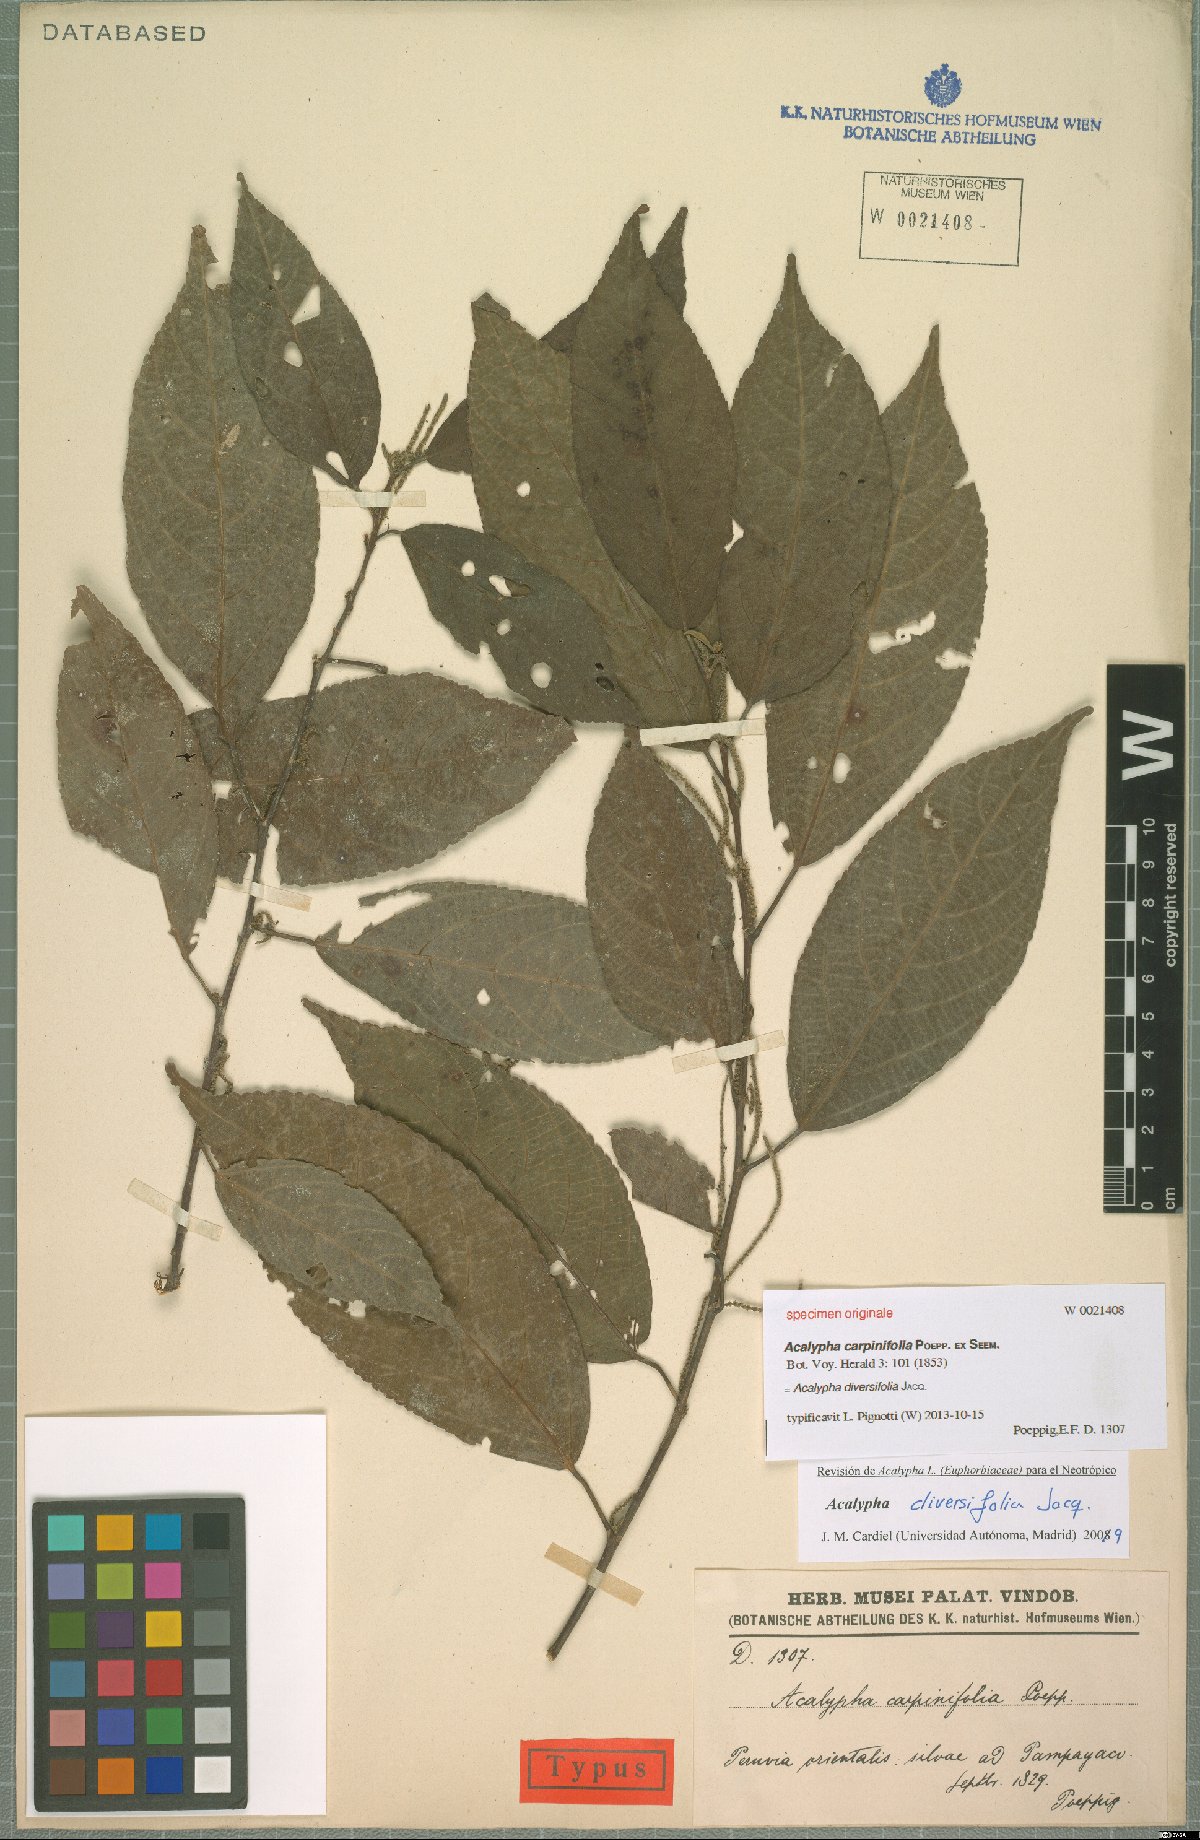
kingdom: Plantae
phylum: Tracheophyta
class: Magnoliopsida
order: Malpighiales
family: Euphorbiaceae
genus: Acalypha
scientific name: Acalypha diversifolia
